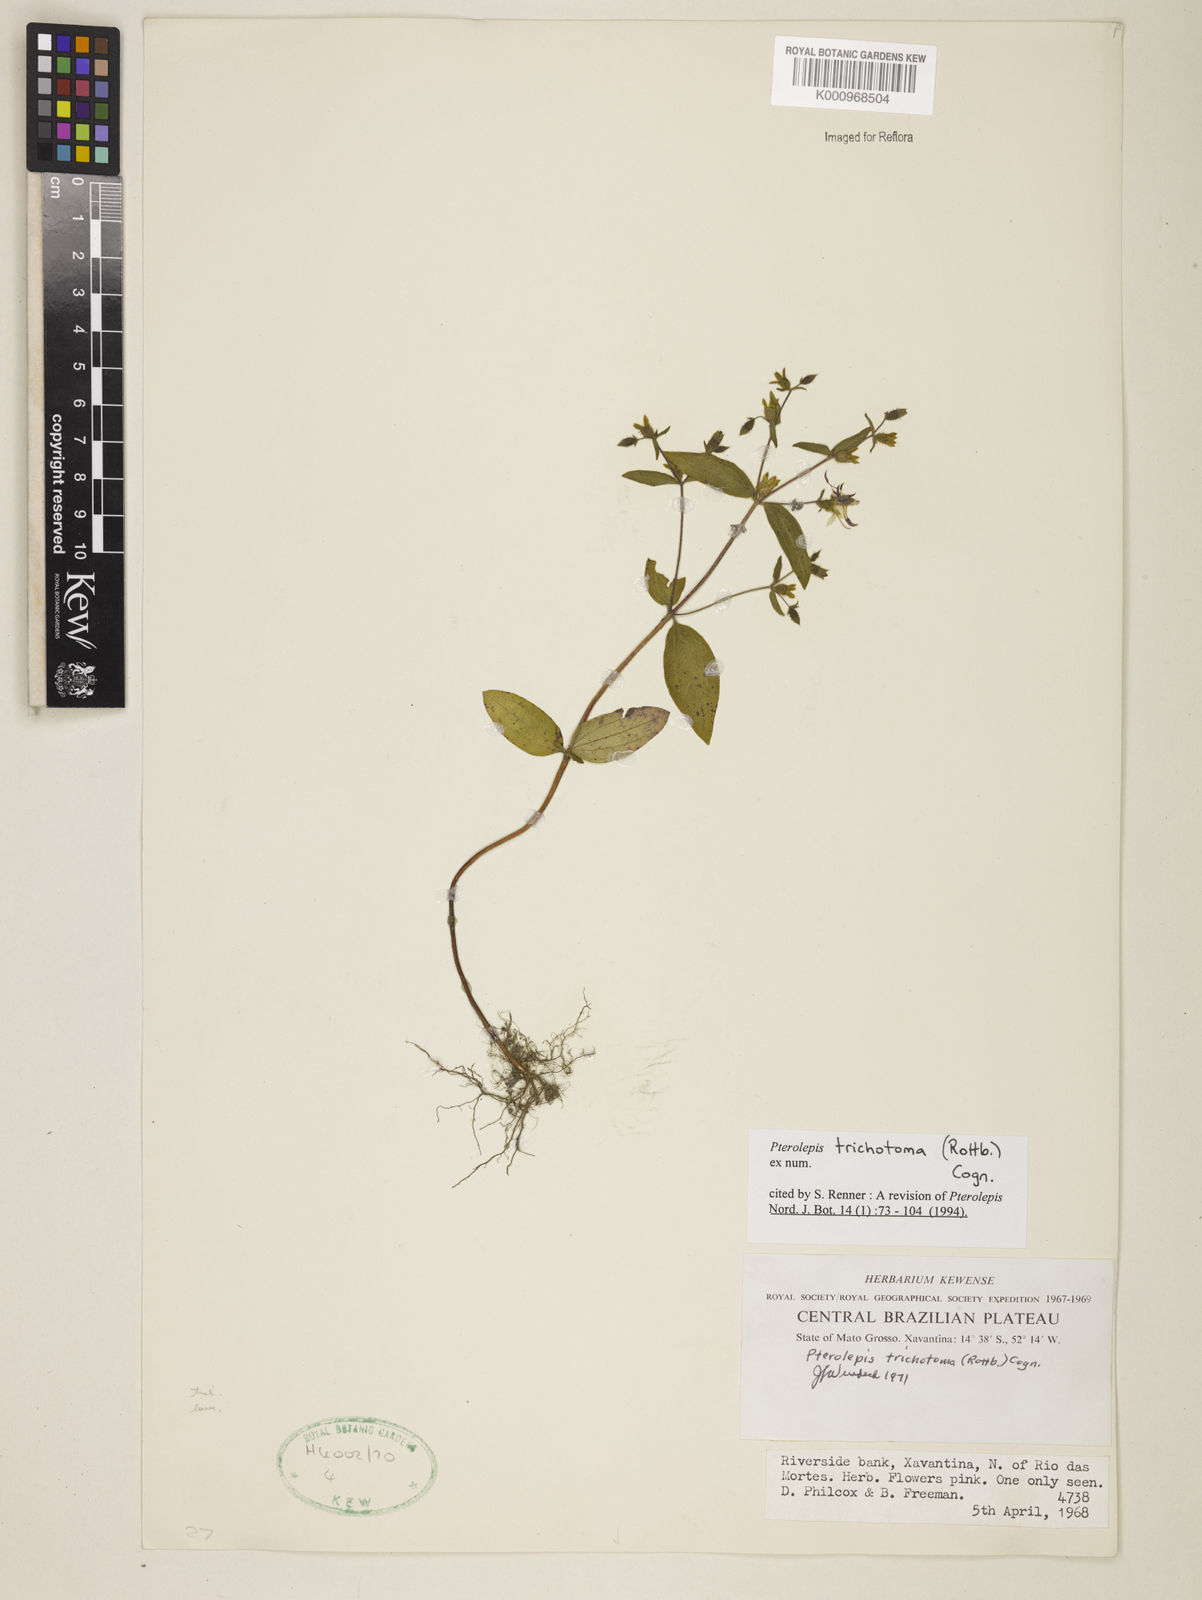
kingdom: Plantae
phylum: Tracheophyta
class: Magnoliopsida
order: Myrtales
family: Melastomataceae
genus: Pterolepis
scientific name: Pterolepis trichotoma
